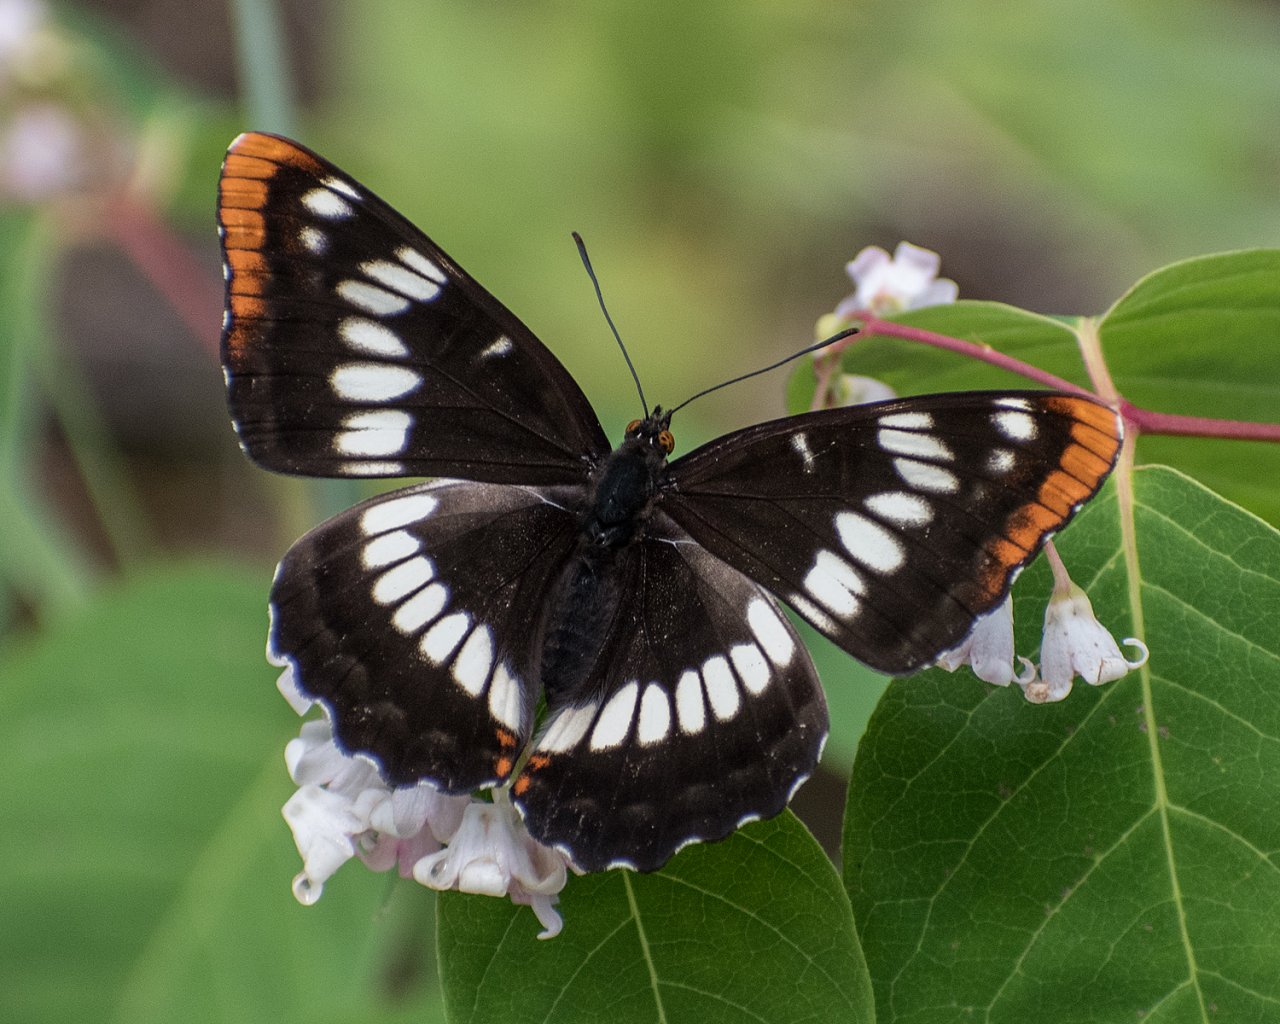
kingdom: Animalia
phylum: Arthropoda
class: Insecta
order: Lepidoptera
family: Nymphalidae
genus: Limenitis
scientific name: Limenitis lorquini
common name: Lorquin's Admiral
